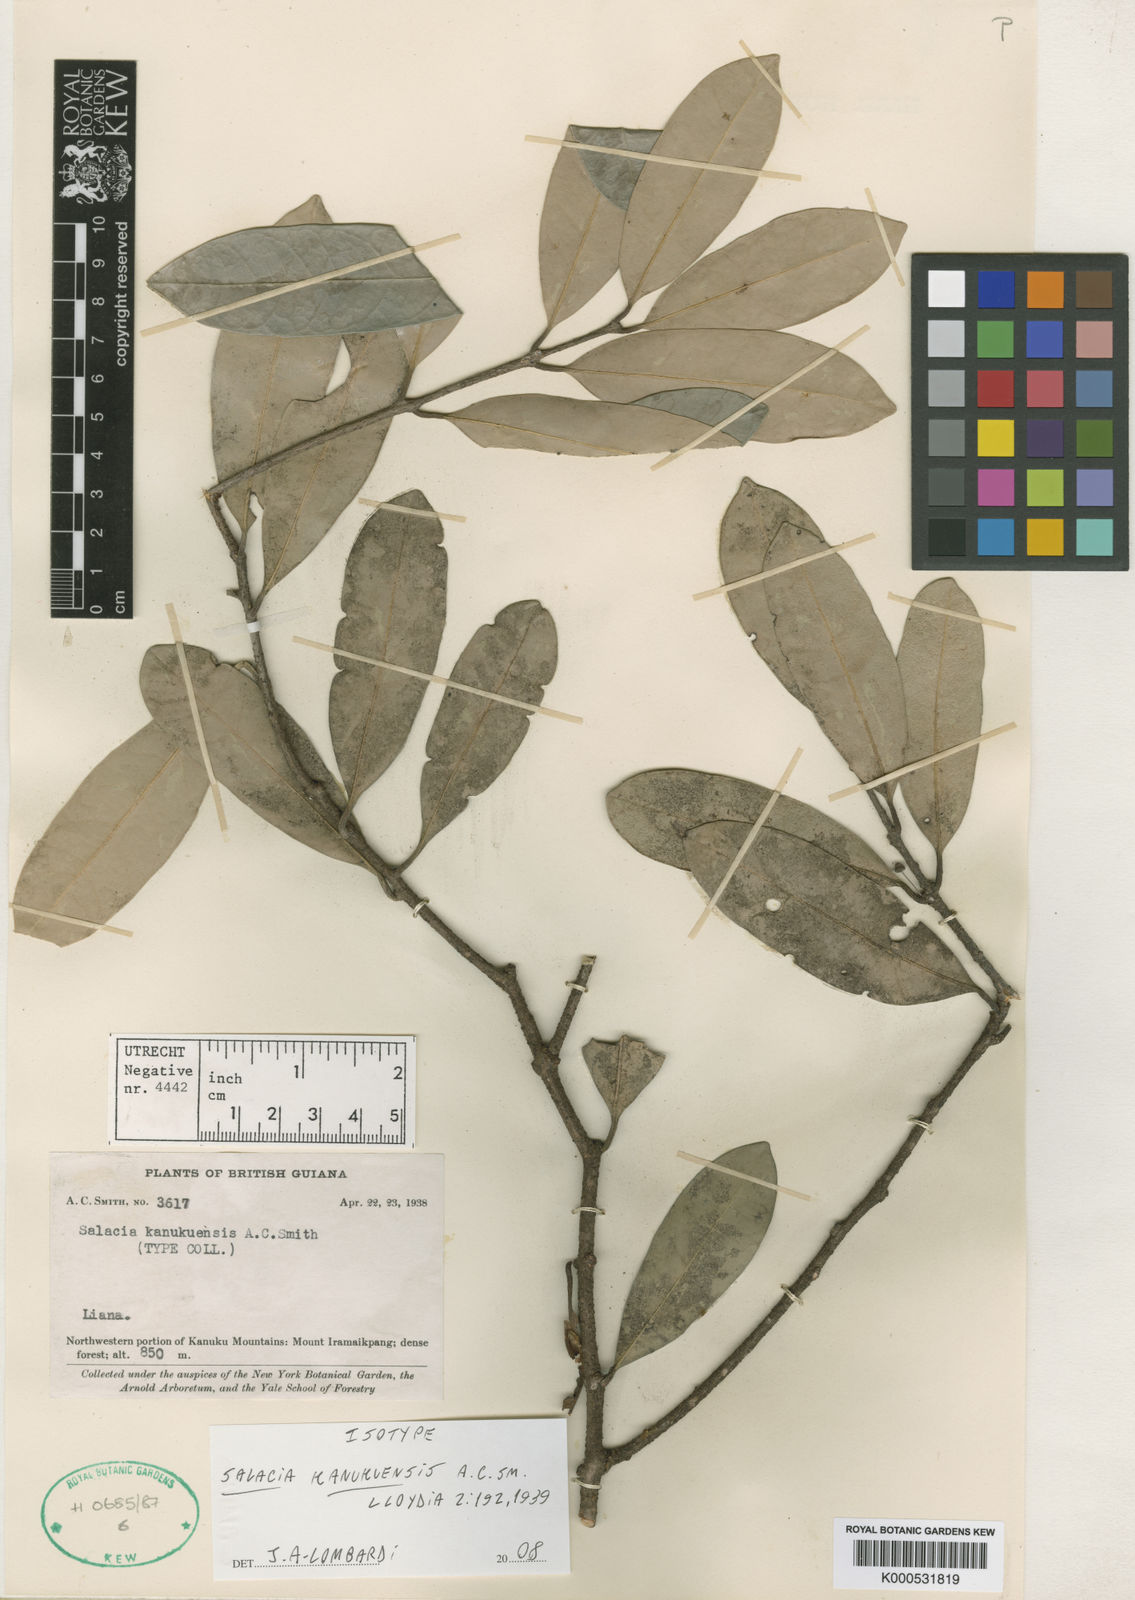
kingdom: Plantae
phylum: Tracheophyta
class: Magnoliopsida
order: Celastrales
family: Celastraceae
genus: Salacia
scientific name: Salacia kanukuensis
